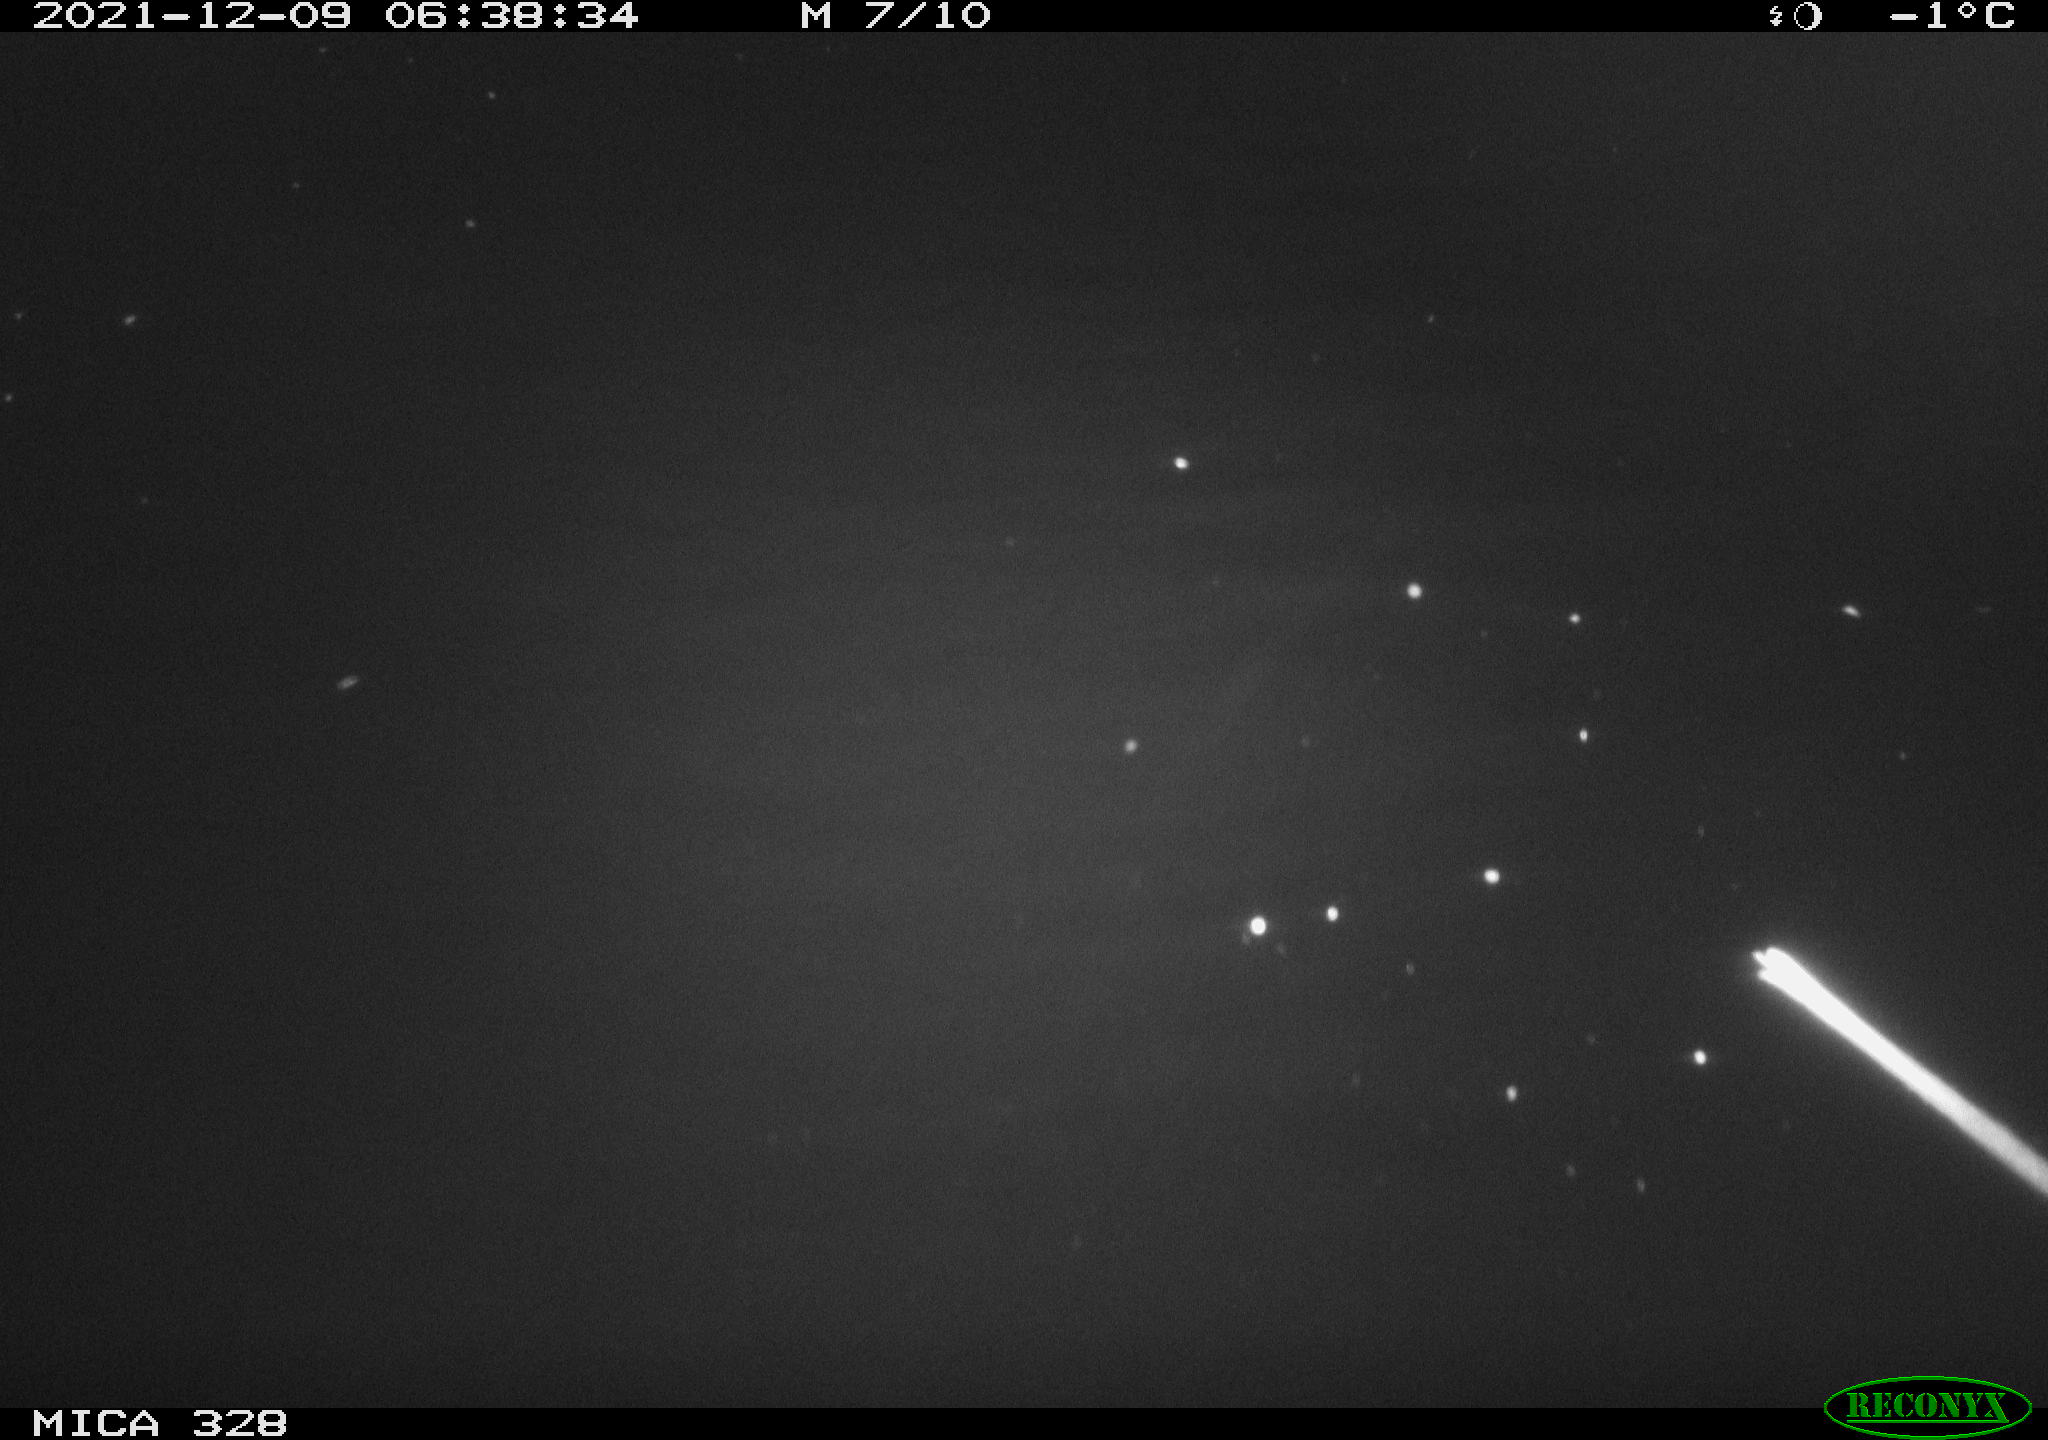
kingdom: Animalia
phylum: Chordata
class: Mammalia
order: Rodentia
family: Cricetidae
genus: Ondatra
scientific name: Ondatra zibethicus
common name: Muskrat
